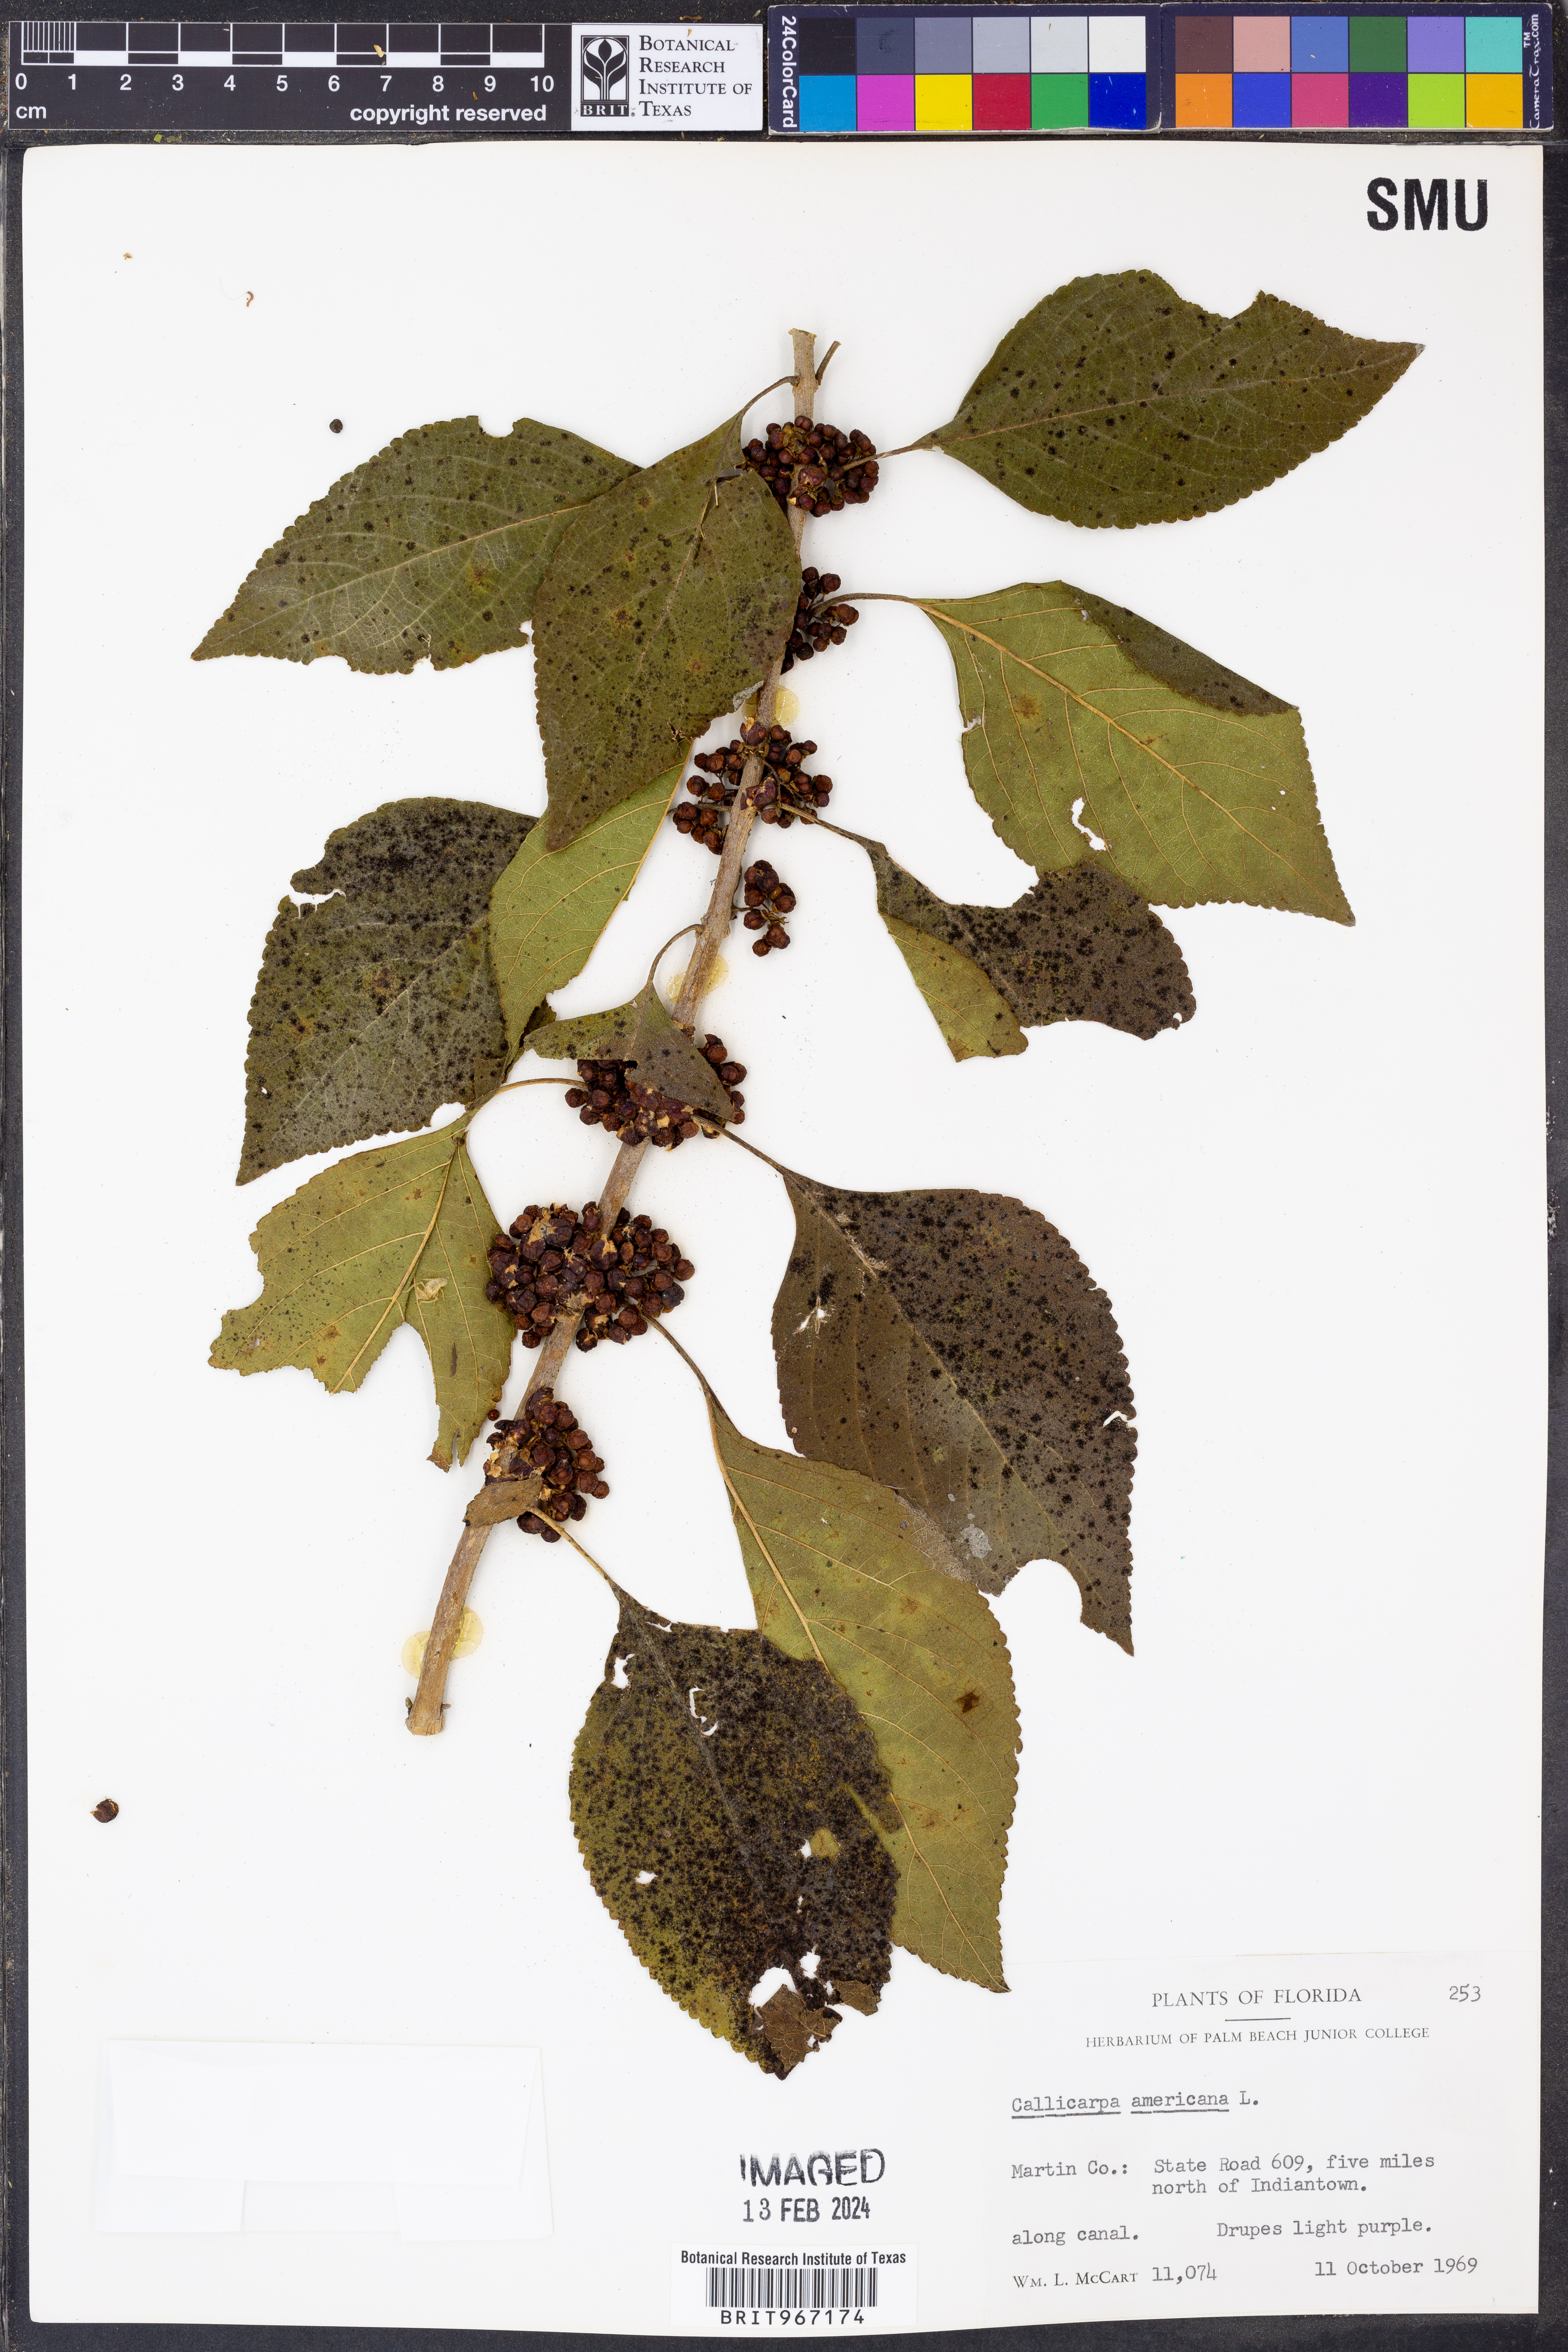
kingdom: Plantae
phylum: Tracheophyta
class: Magnoliopsida
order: Lamiales
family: Lamiaceae
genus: Callicarpa
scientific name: Callicarpa americana
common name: American beautyberry
